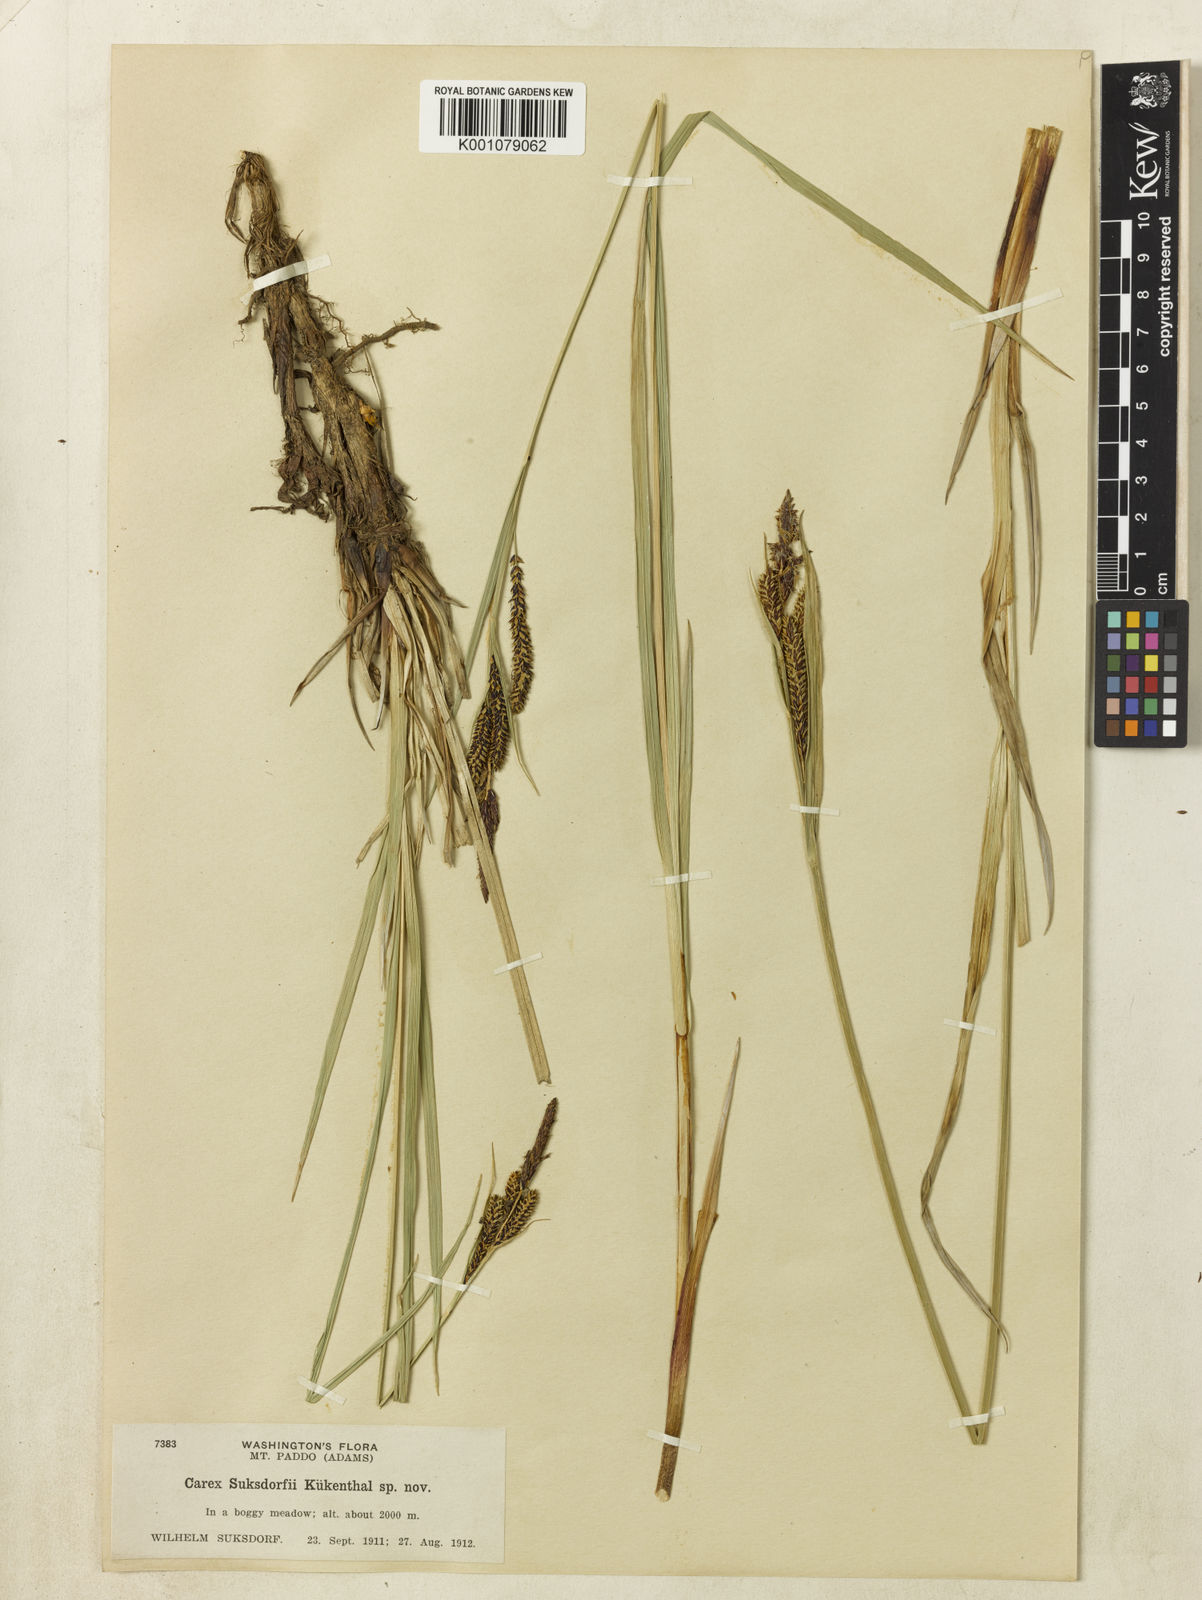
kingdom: Plantae
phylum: Tracheophyta
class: Liliopsida
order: Poales
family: Cyperaceae
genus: Carex
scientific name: Carex aquatilis
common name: Water sedge
